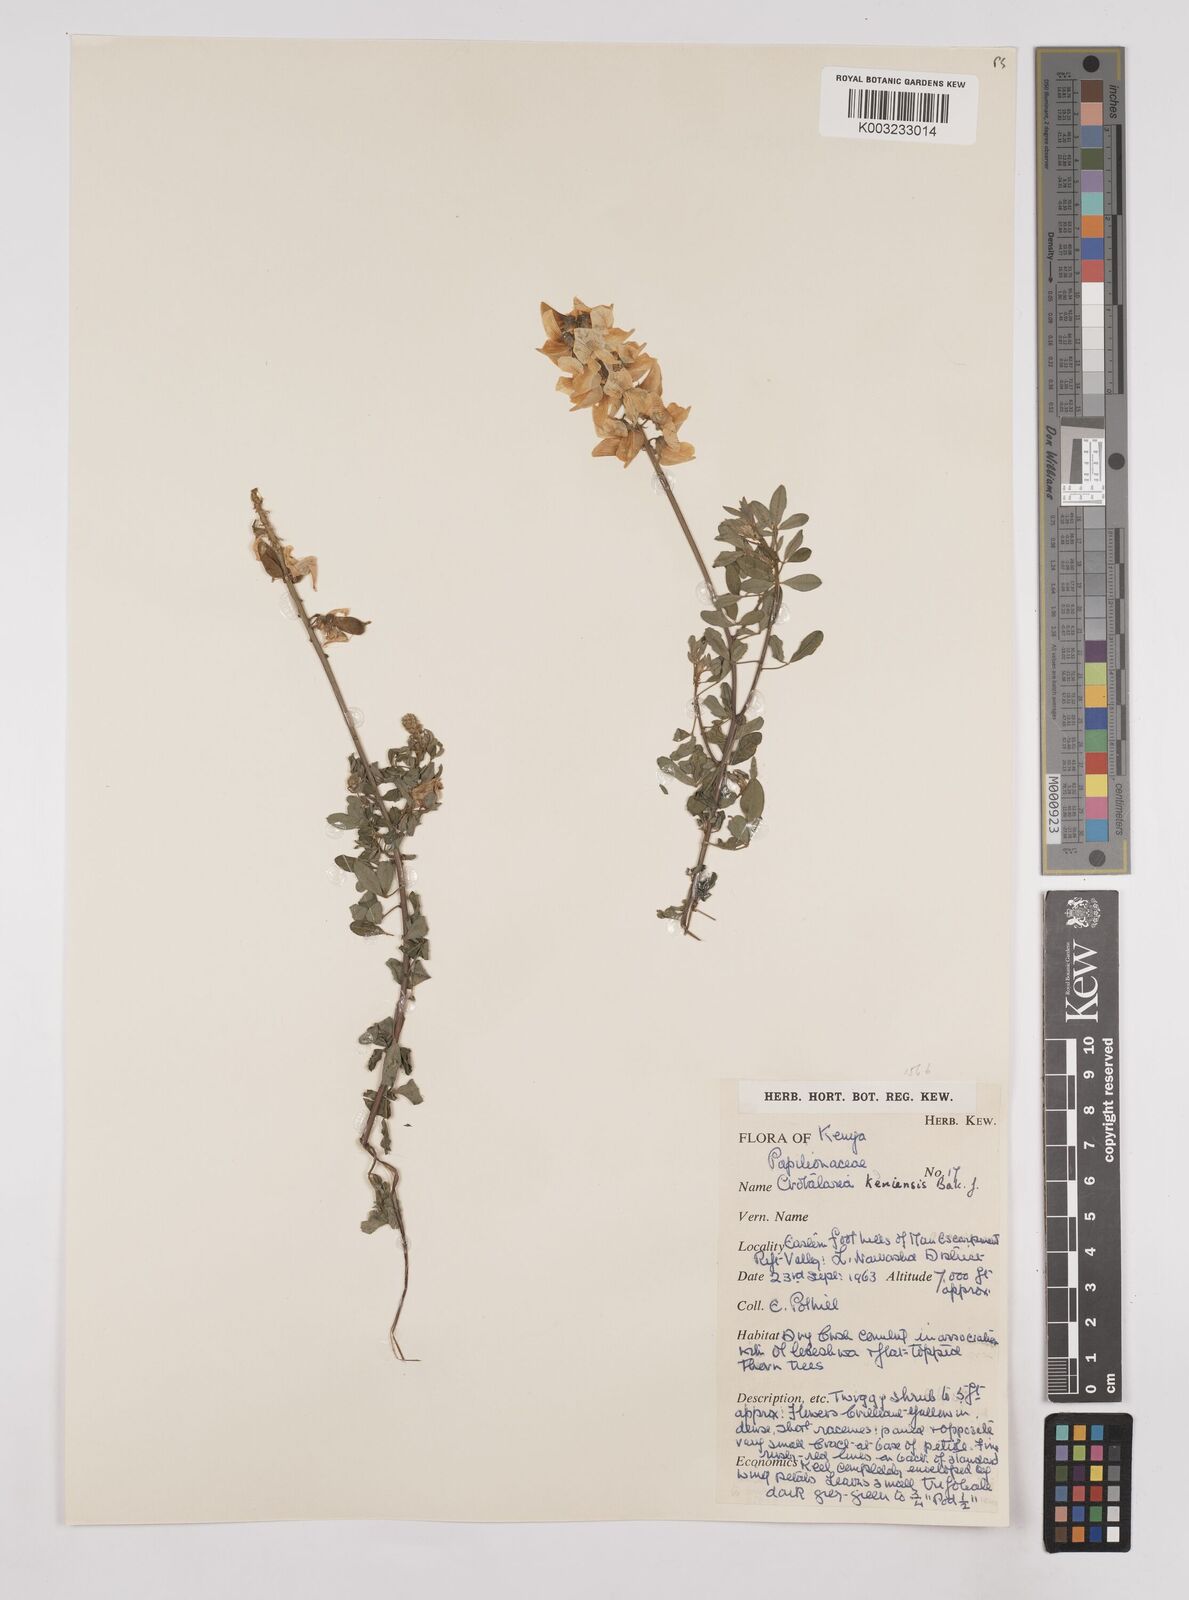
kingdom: Plantae
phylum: Tracheophyta
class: Magnoliopsida
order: Fabales
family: Fabaceae
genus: Crotalaria
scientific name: Crotalaria keniensis
